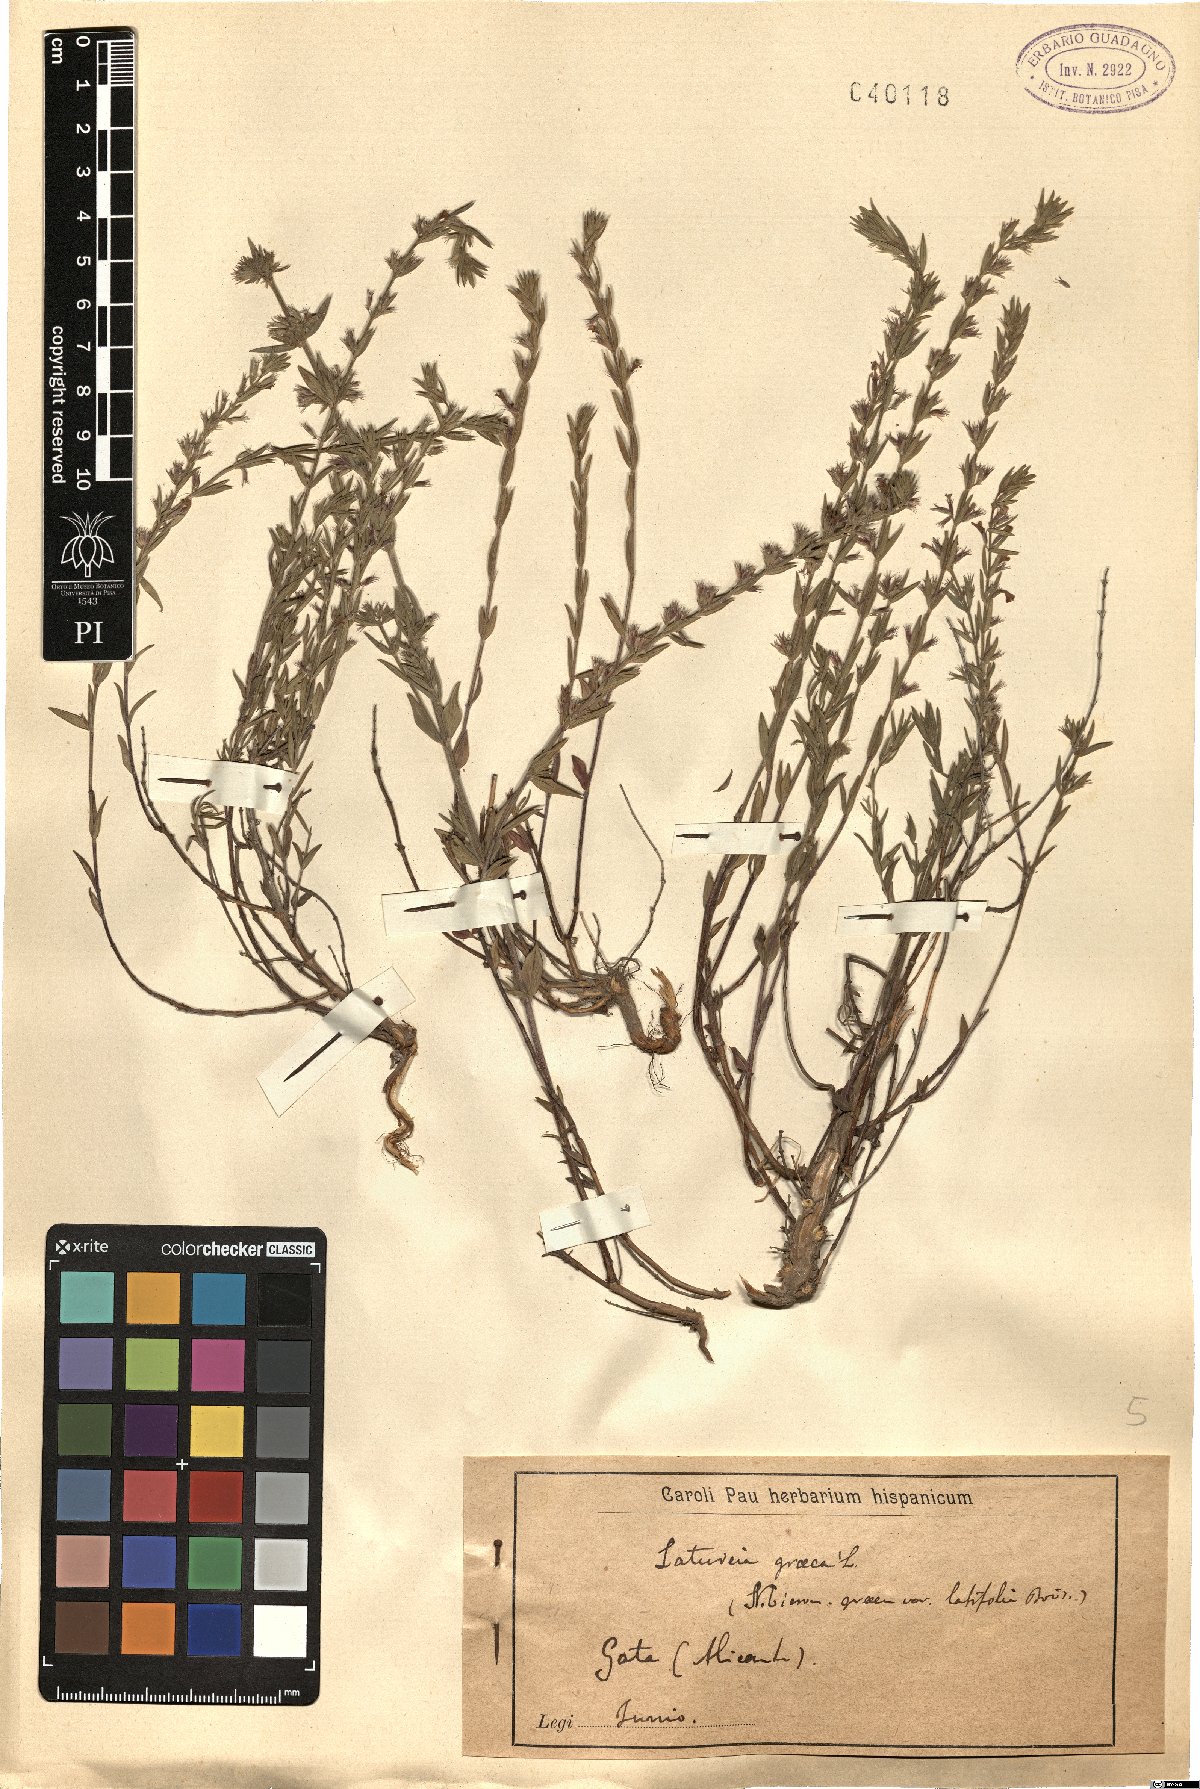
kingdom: Plantae
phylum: Tracheophyta
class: Magnoliopsida
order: Lamiales
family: Lamiaceae
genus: Micromeria
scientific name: Micromeria graeca
